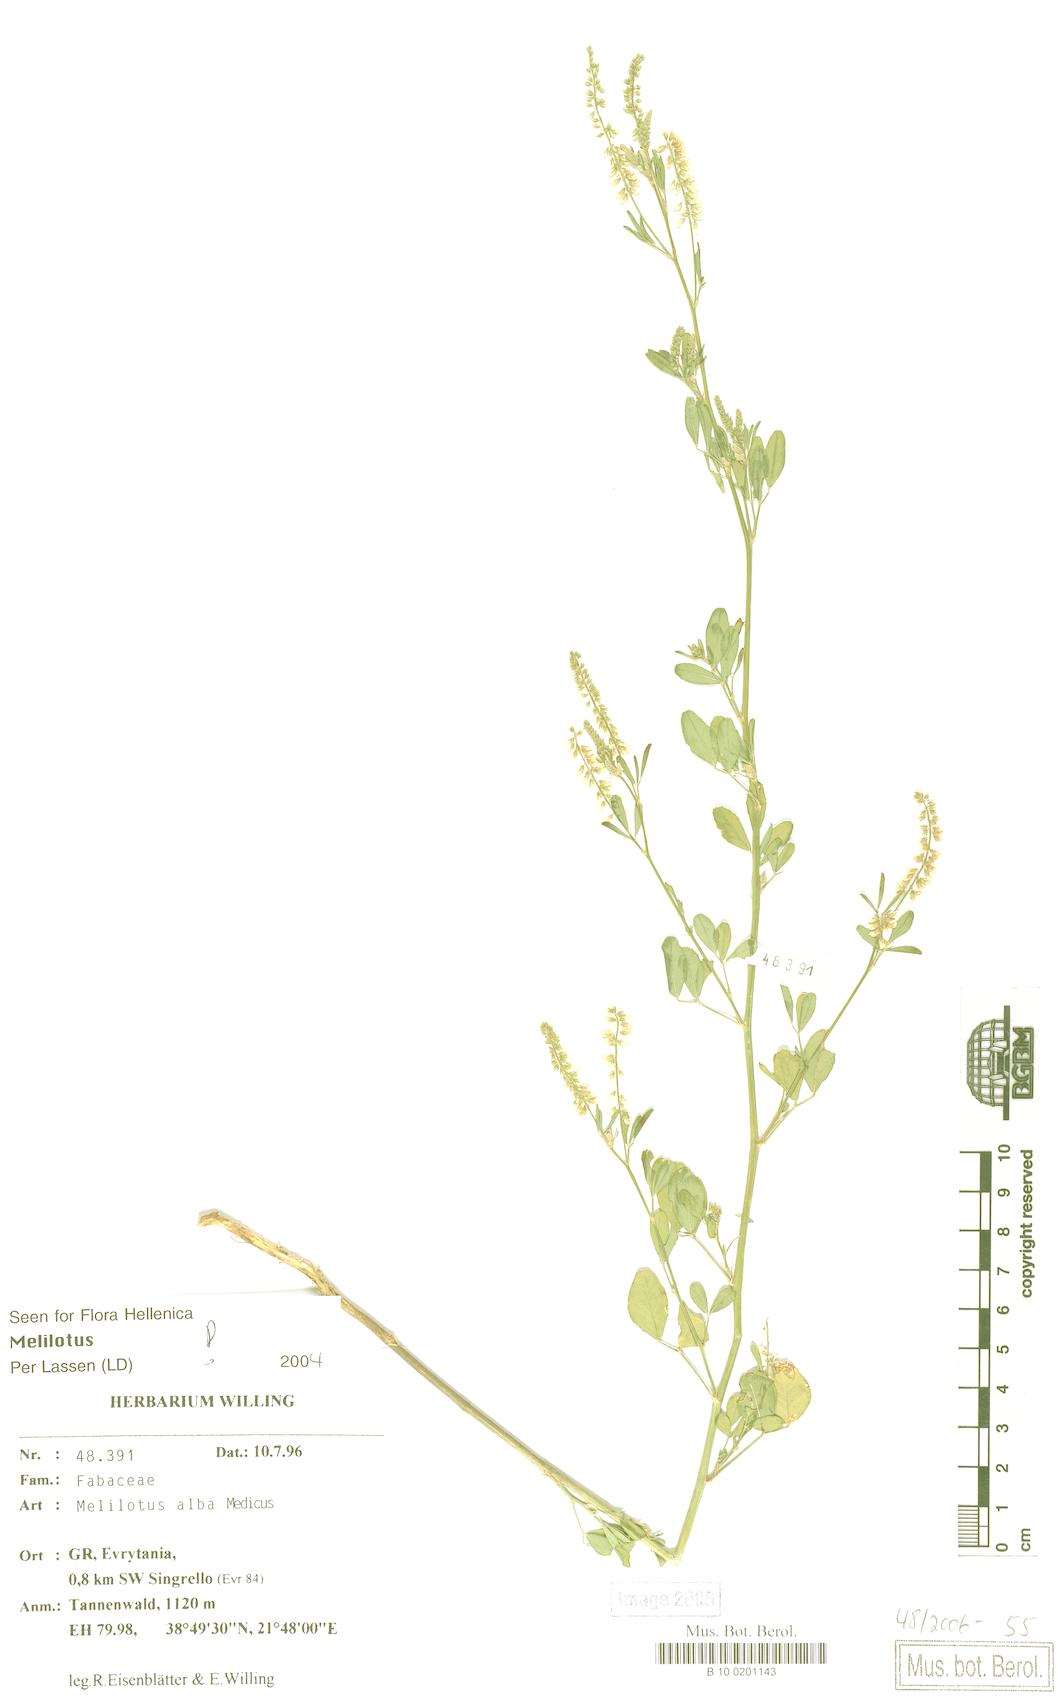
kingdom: Plantae
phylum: Tracheophyta
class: Magnoliopsida
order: Fabales
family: Fabaceae
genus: Melilotus
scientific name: Melilotus albus
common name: White melilot
